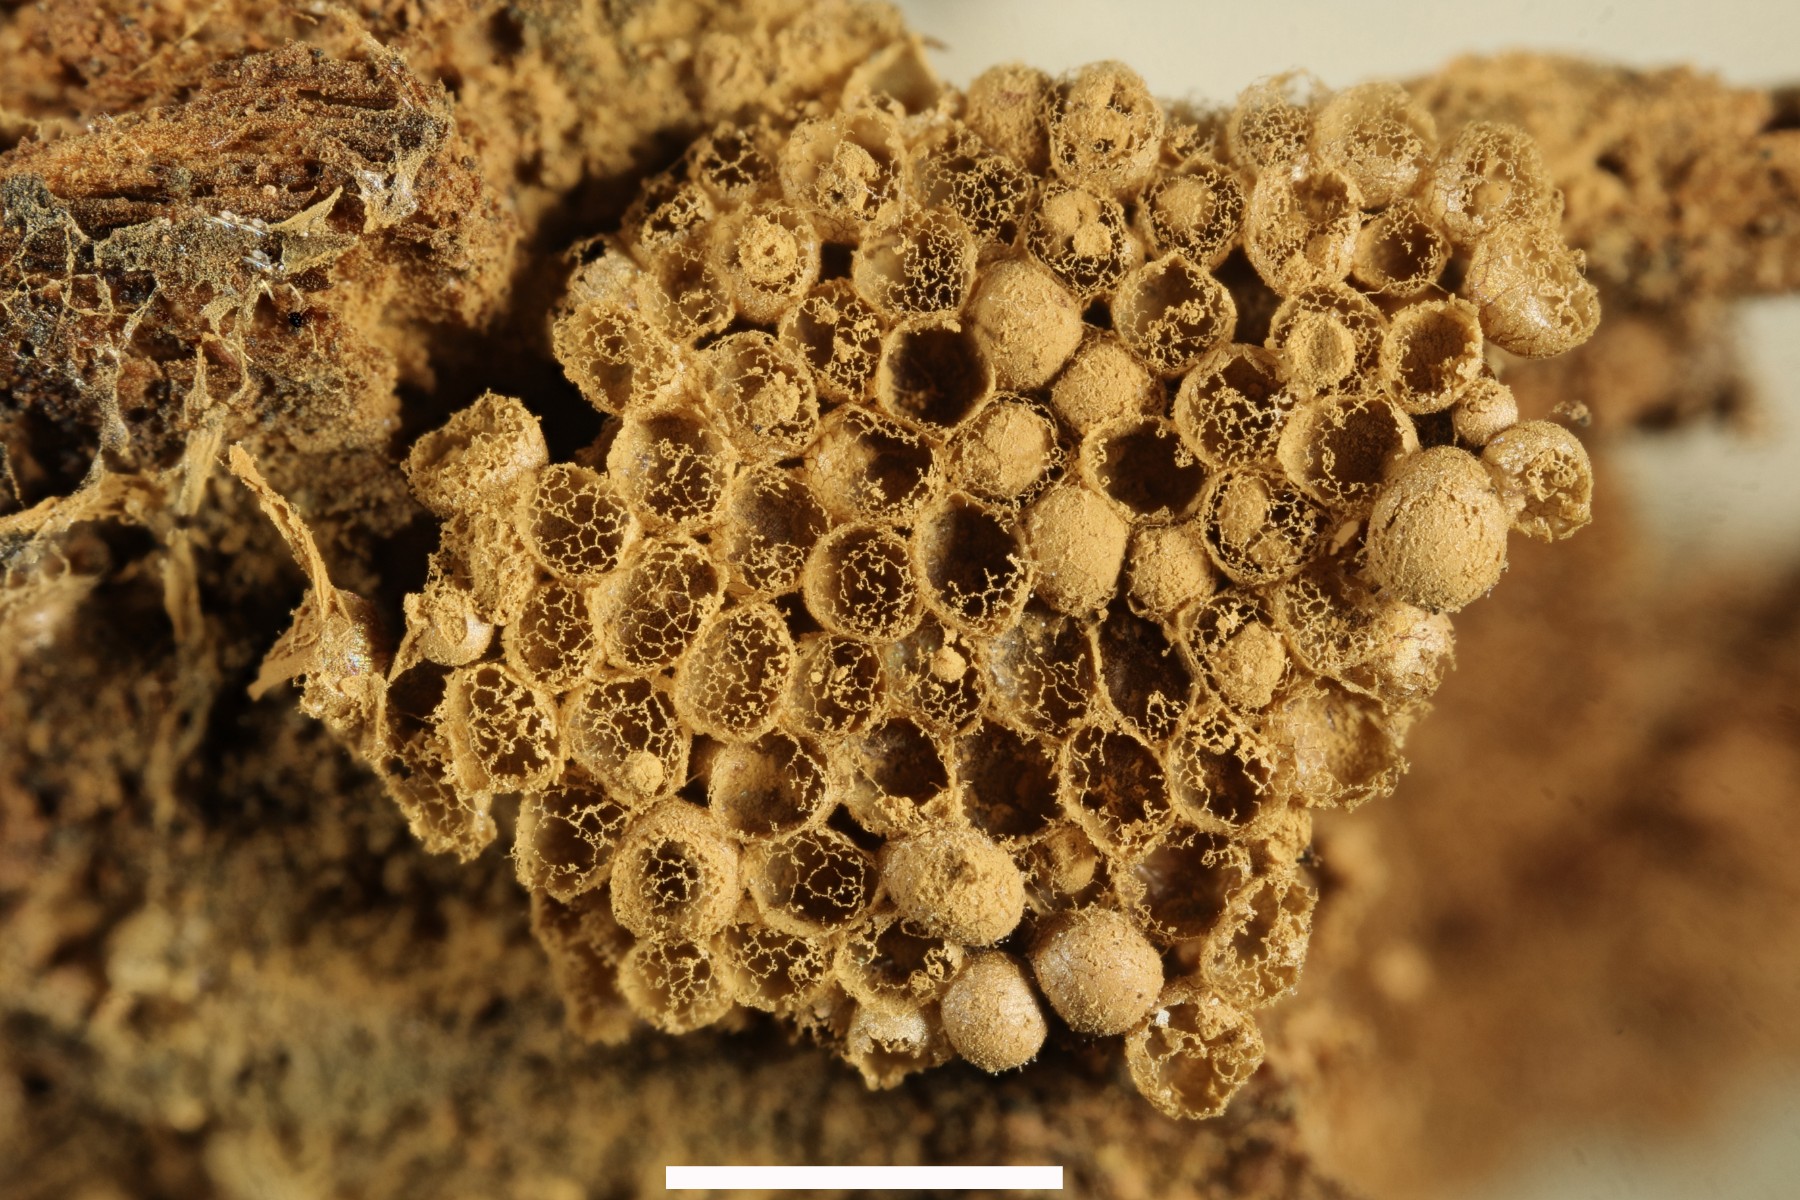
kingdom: Protozoa
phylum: Mycetozoa
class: Myxomycetes
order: Cribrariales
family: Cribrariaceae
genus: Cribraria
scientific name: Cribraria argillacea
